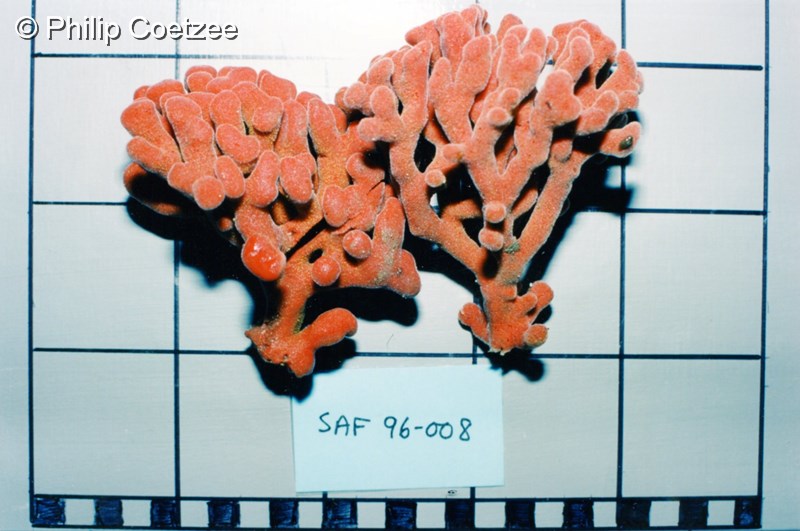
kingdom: Animalia
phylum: Porifera
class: Demospongiae
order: Axinellida
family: Axinellidae
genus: Axinella
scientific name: Axinella
